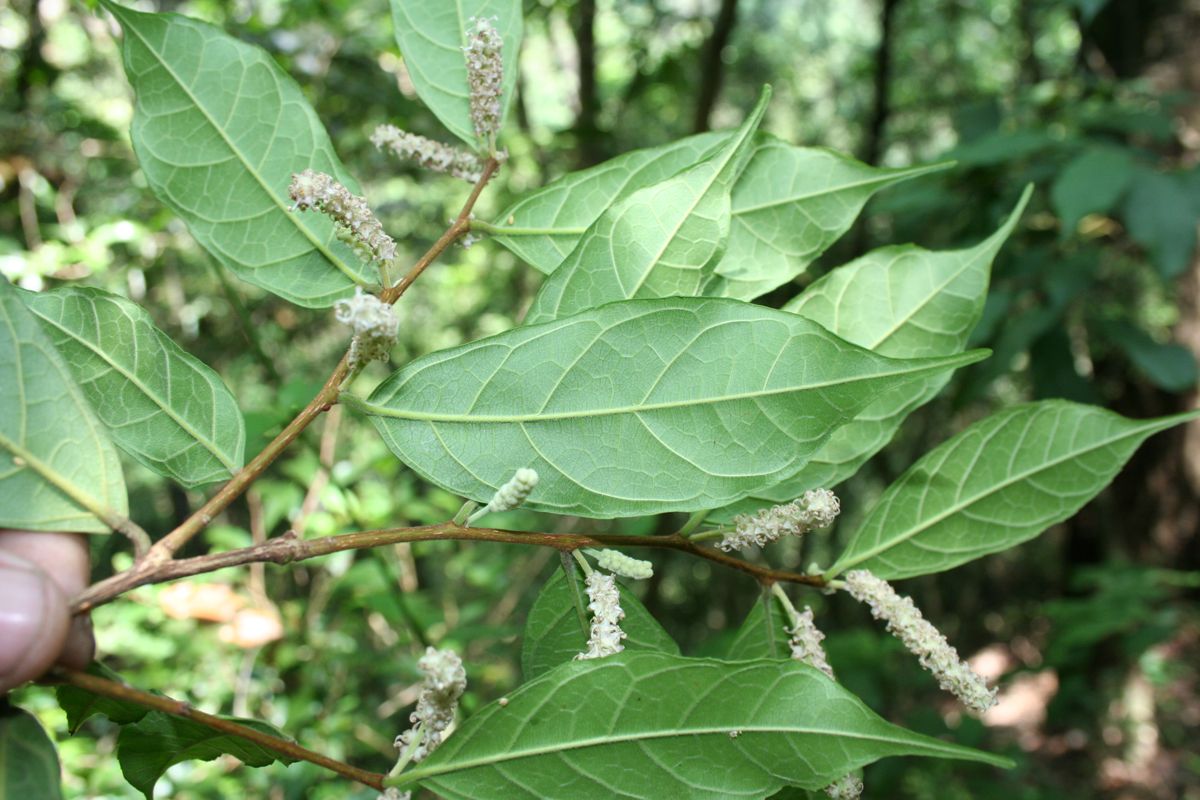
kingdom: Plantae
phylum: Tracheophyta
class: Magnoliopsida
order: Rosales
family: Moraceae
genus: Trophis
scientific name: Trophis racemosa
